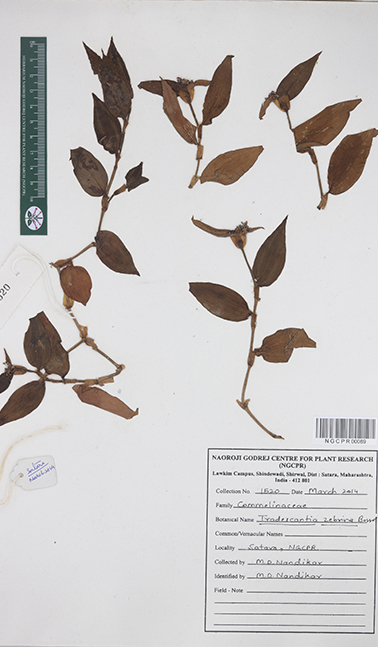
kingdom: Plantae
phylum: Tracheophyta
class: Liliopsida
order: Commelinales
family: Commelinaceae
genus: Tradescantia
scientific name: Tradescantia zebrina
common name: Inchplant
